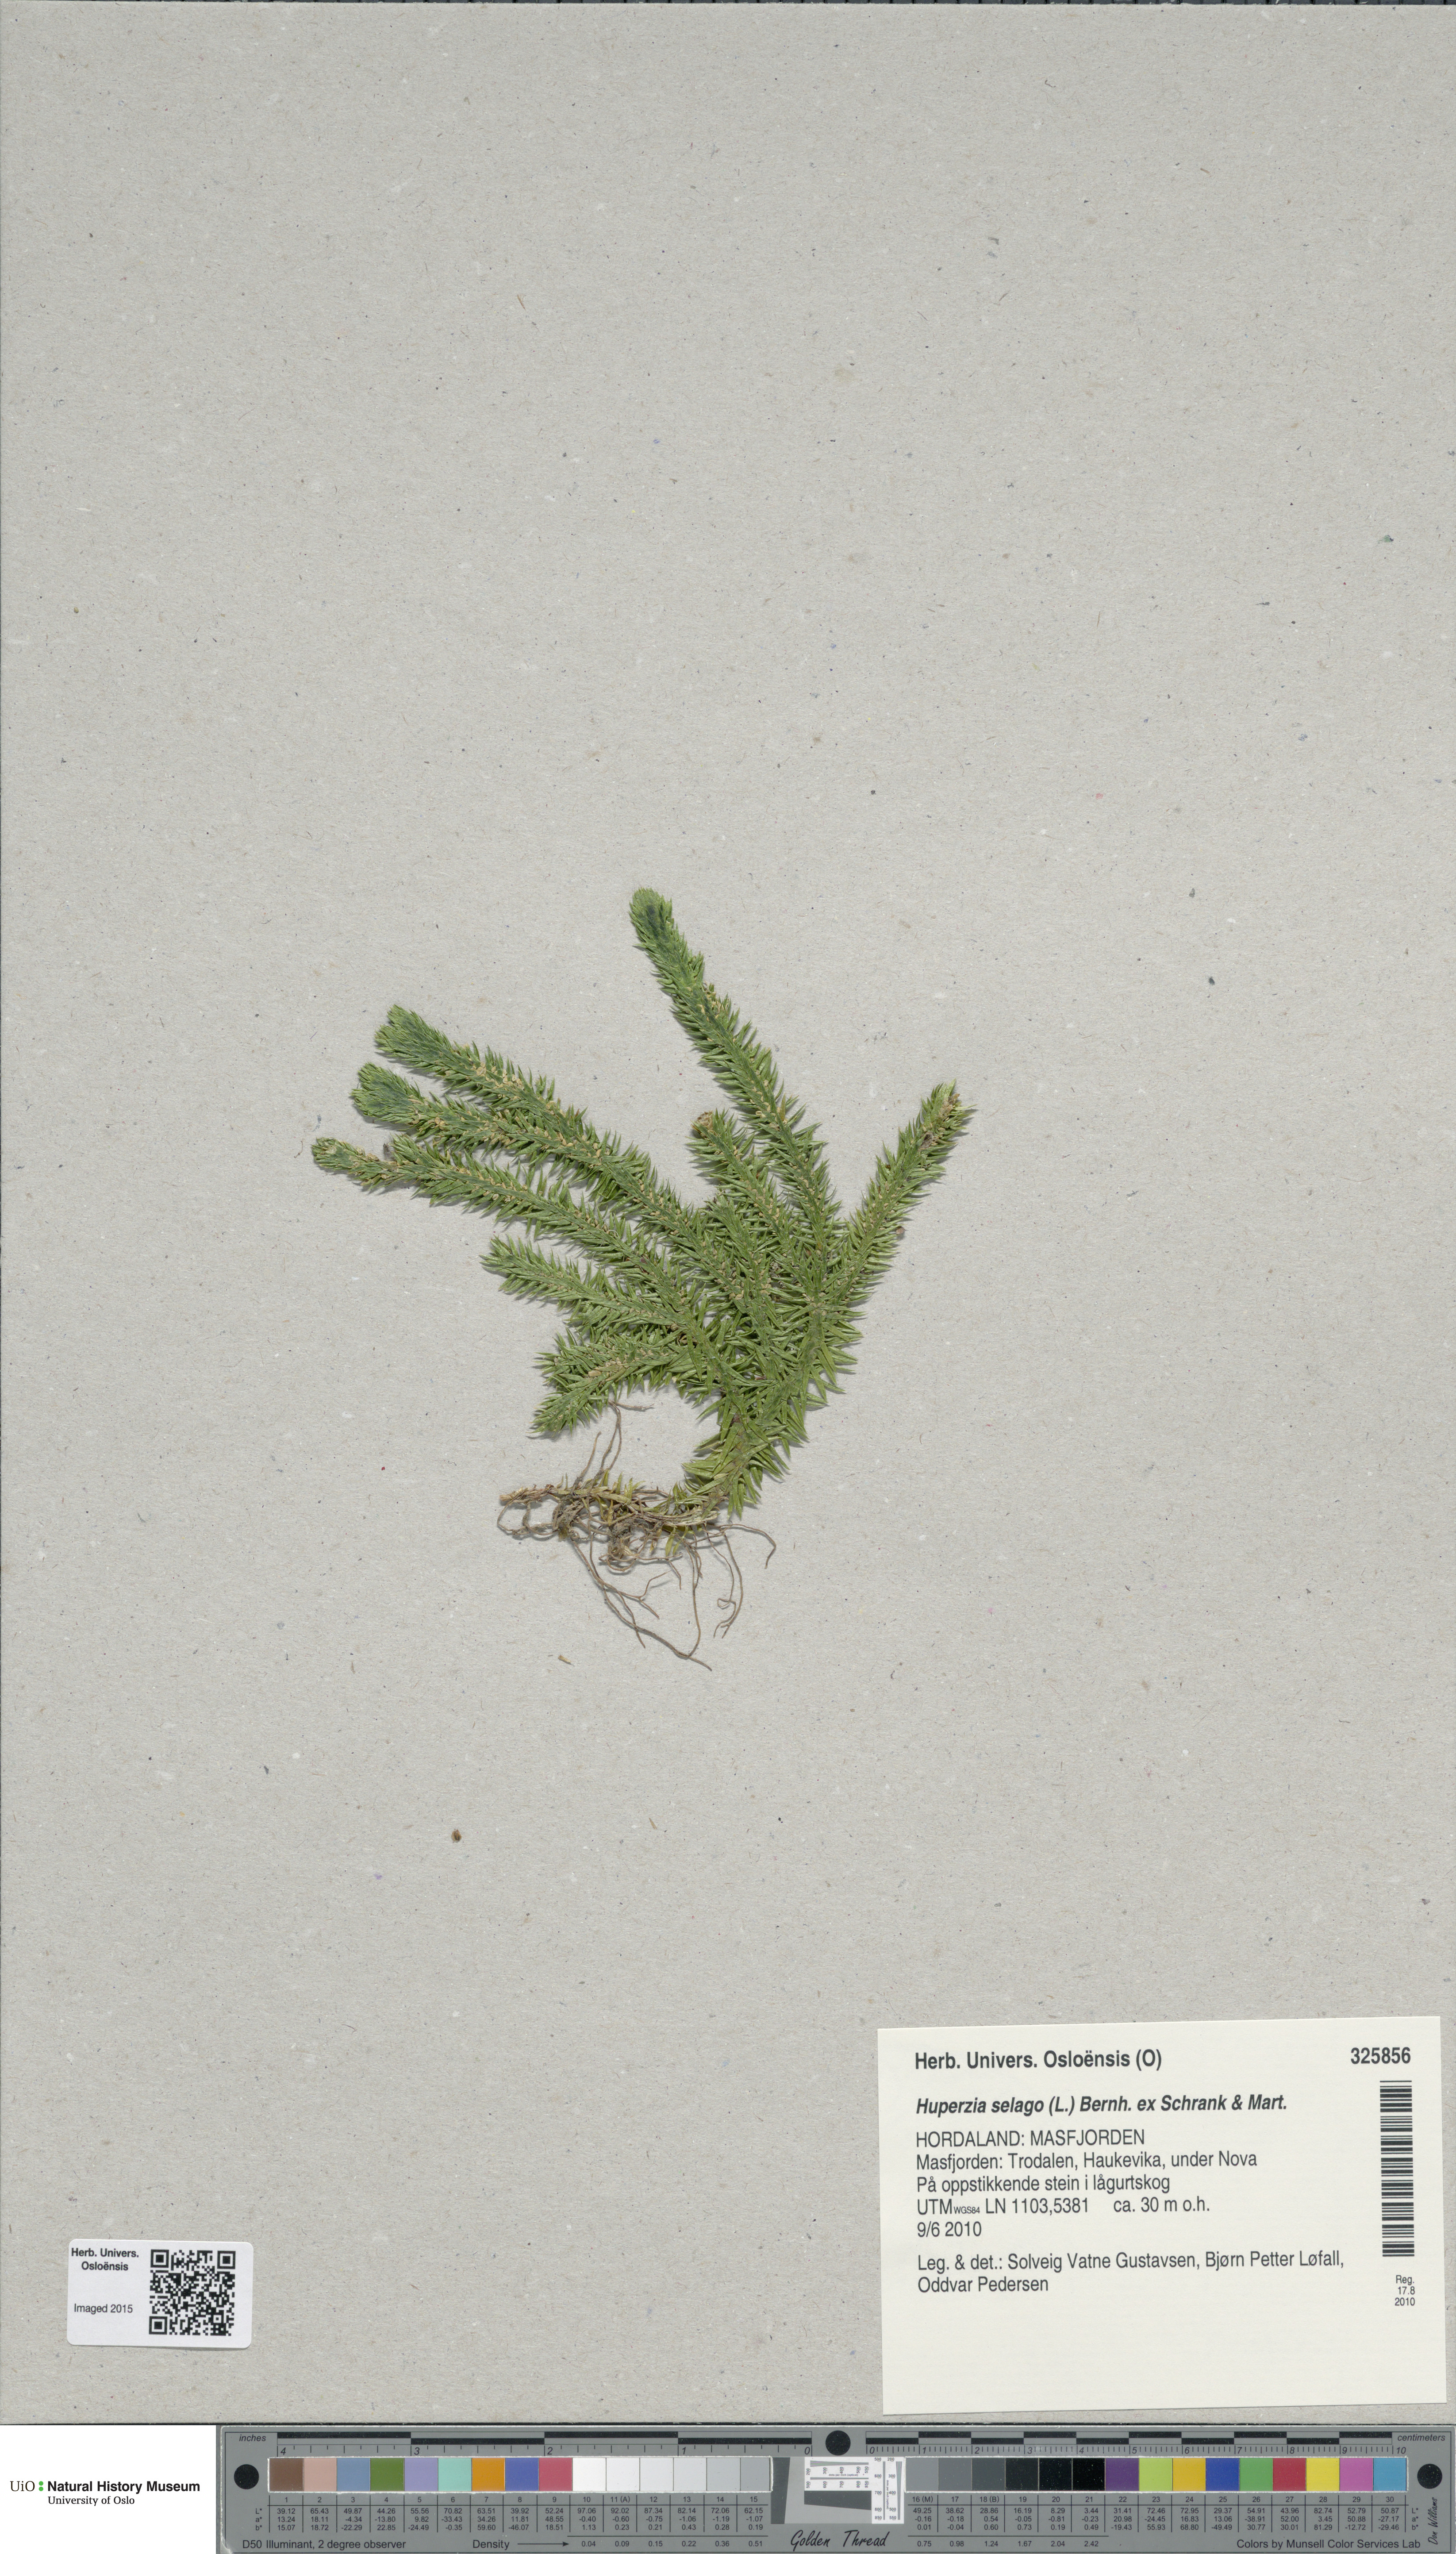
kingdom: Plantae
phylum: Tracheophyta
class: Lycopodiopsida
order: Lycopodiales
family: Lycopodiaceae
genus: Huperzia
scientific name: Huperzia selago
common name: Northern firmoss
